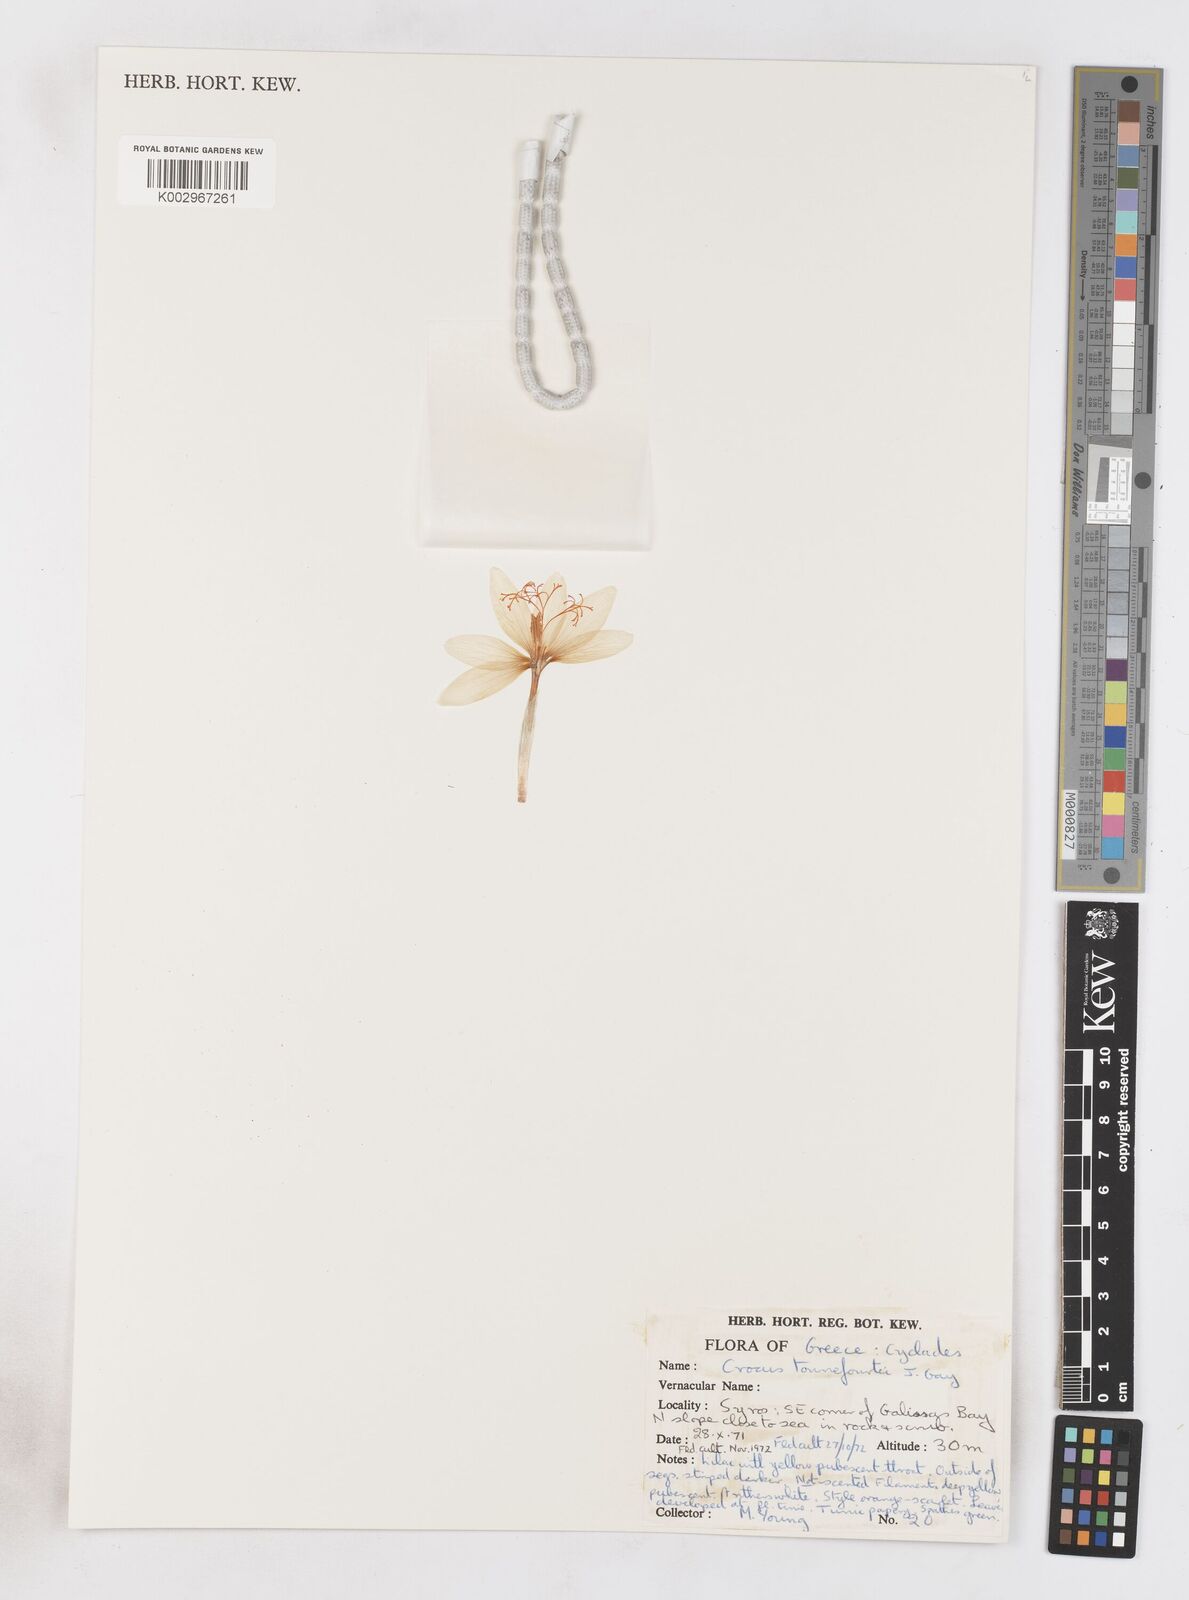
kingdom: Plantae
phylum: Tracheophyta
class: Liliopsida
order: Asparagales
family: Iridaceae
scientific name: Iridaceae
